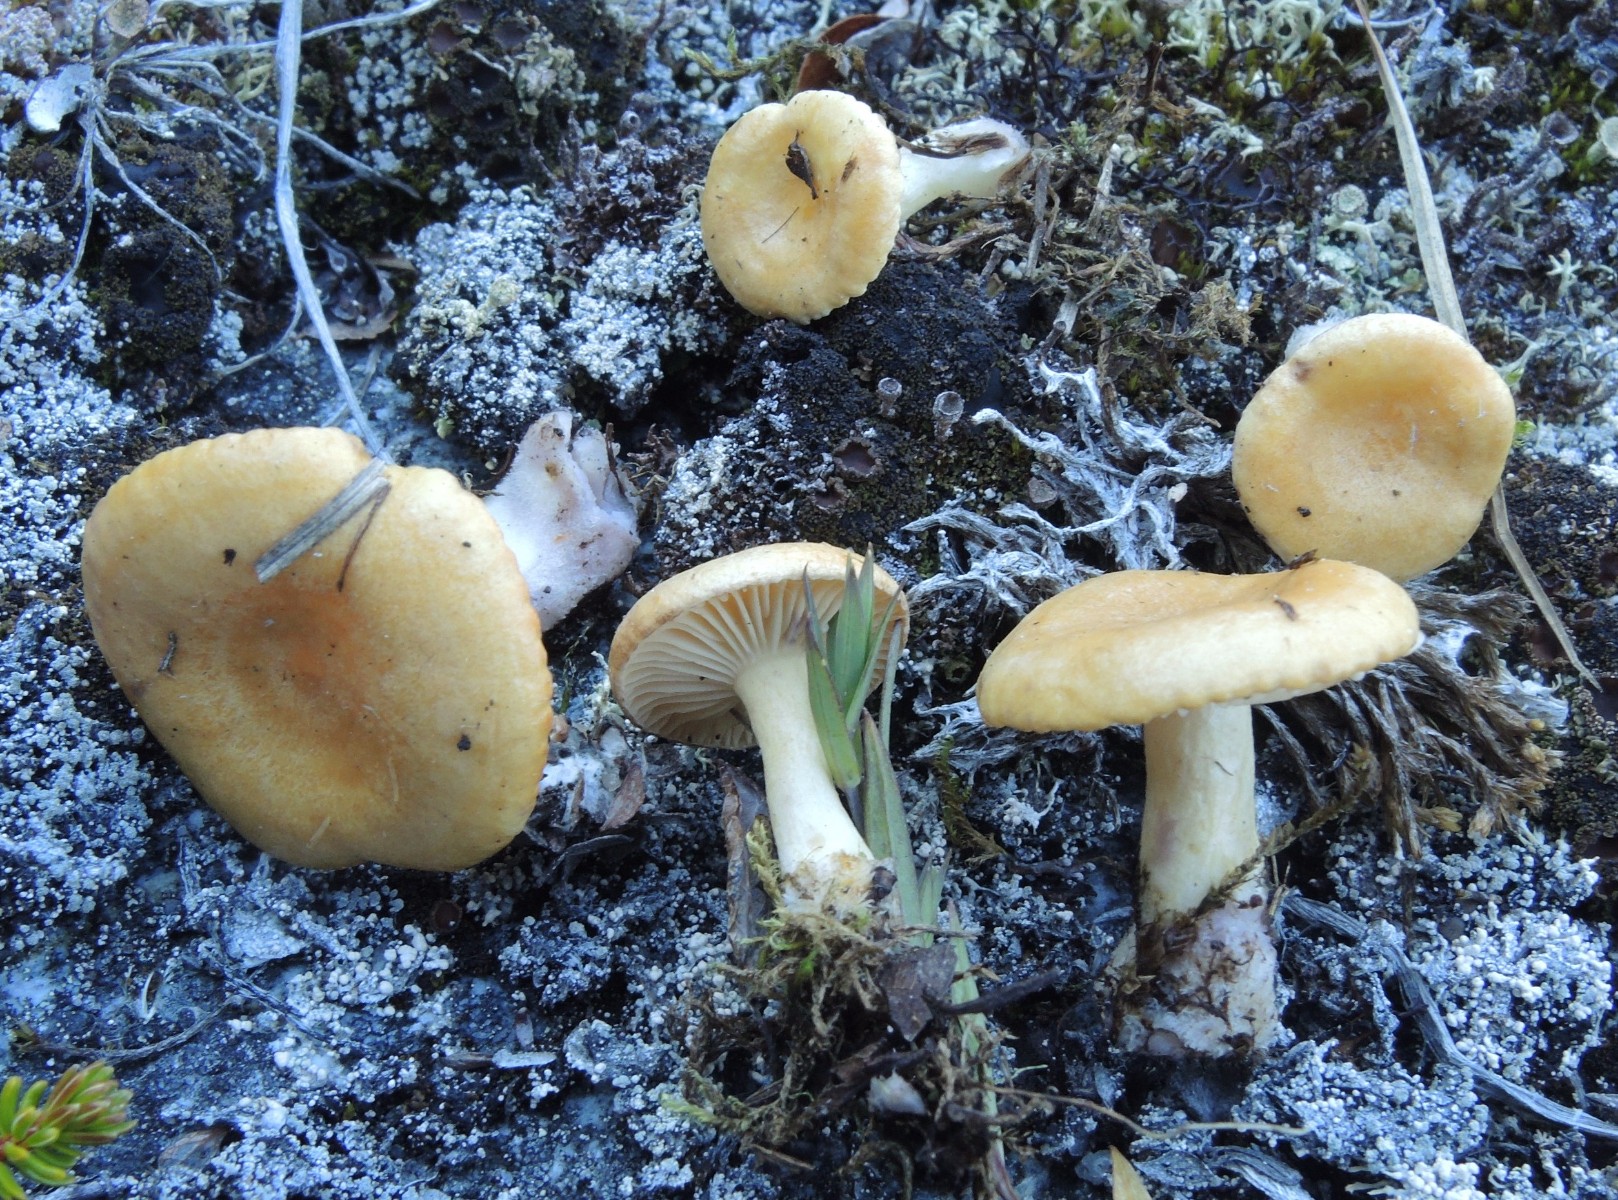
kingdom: Fungi
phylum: Basidiomycota
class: Agaricomycetes
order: Russulales
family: Russulaceae
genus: Lactarius
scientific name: Lactarius salicis-herbaceae
